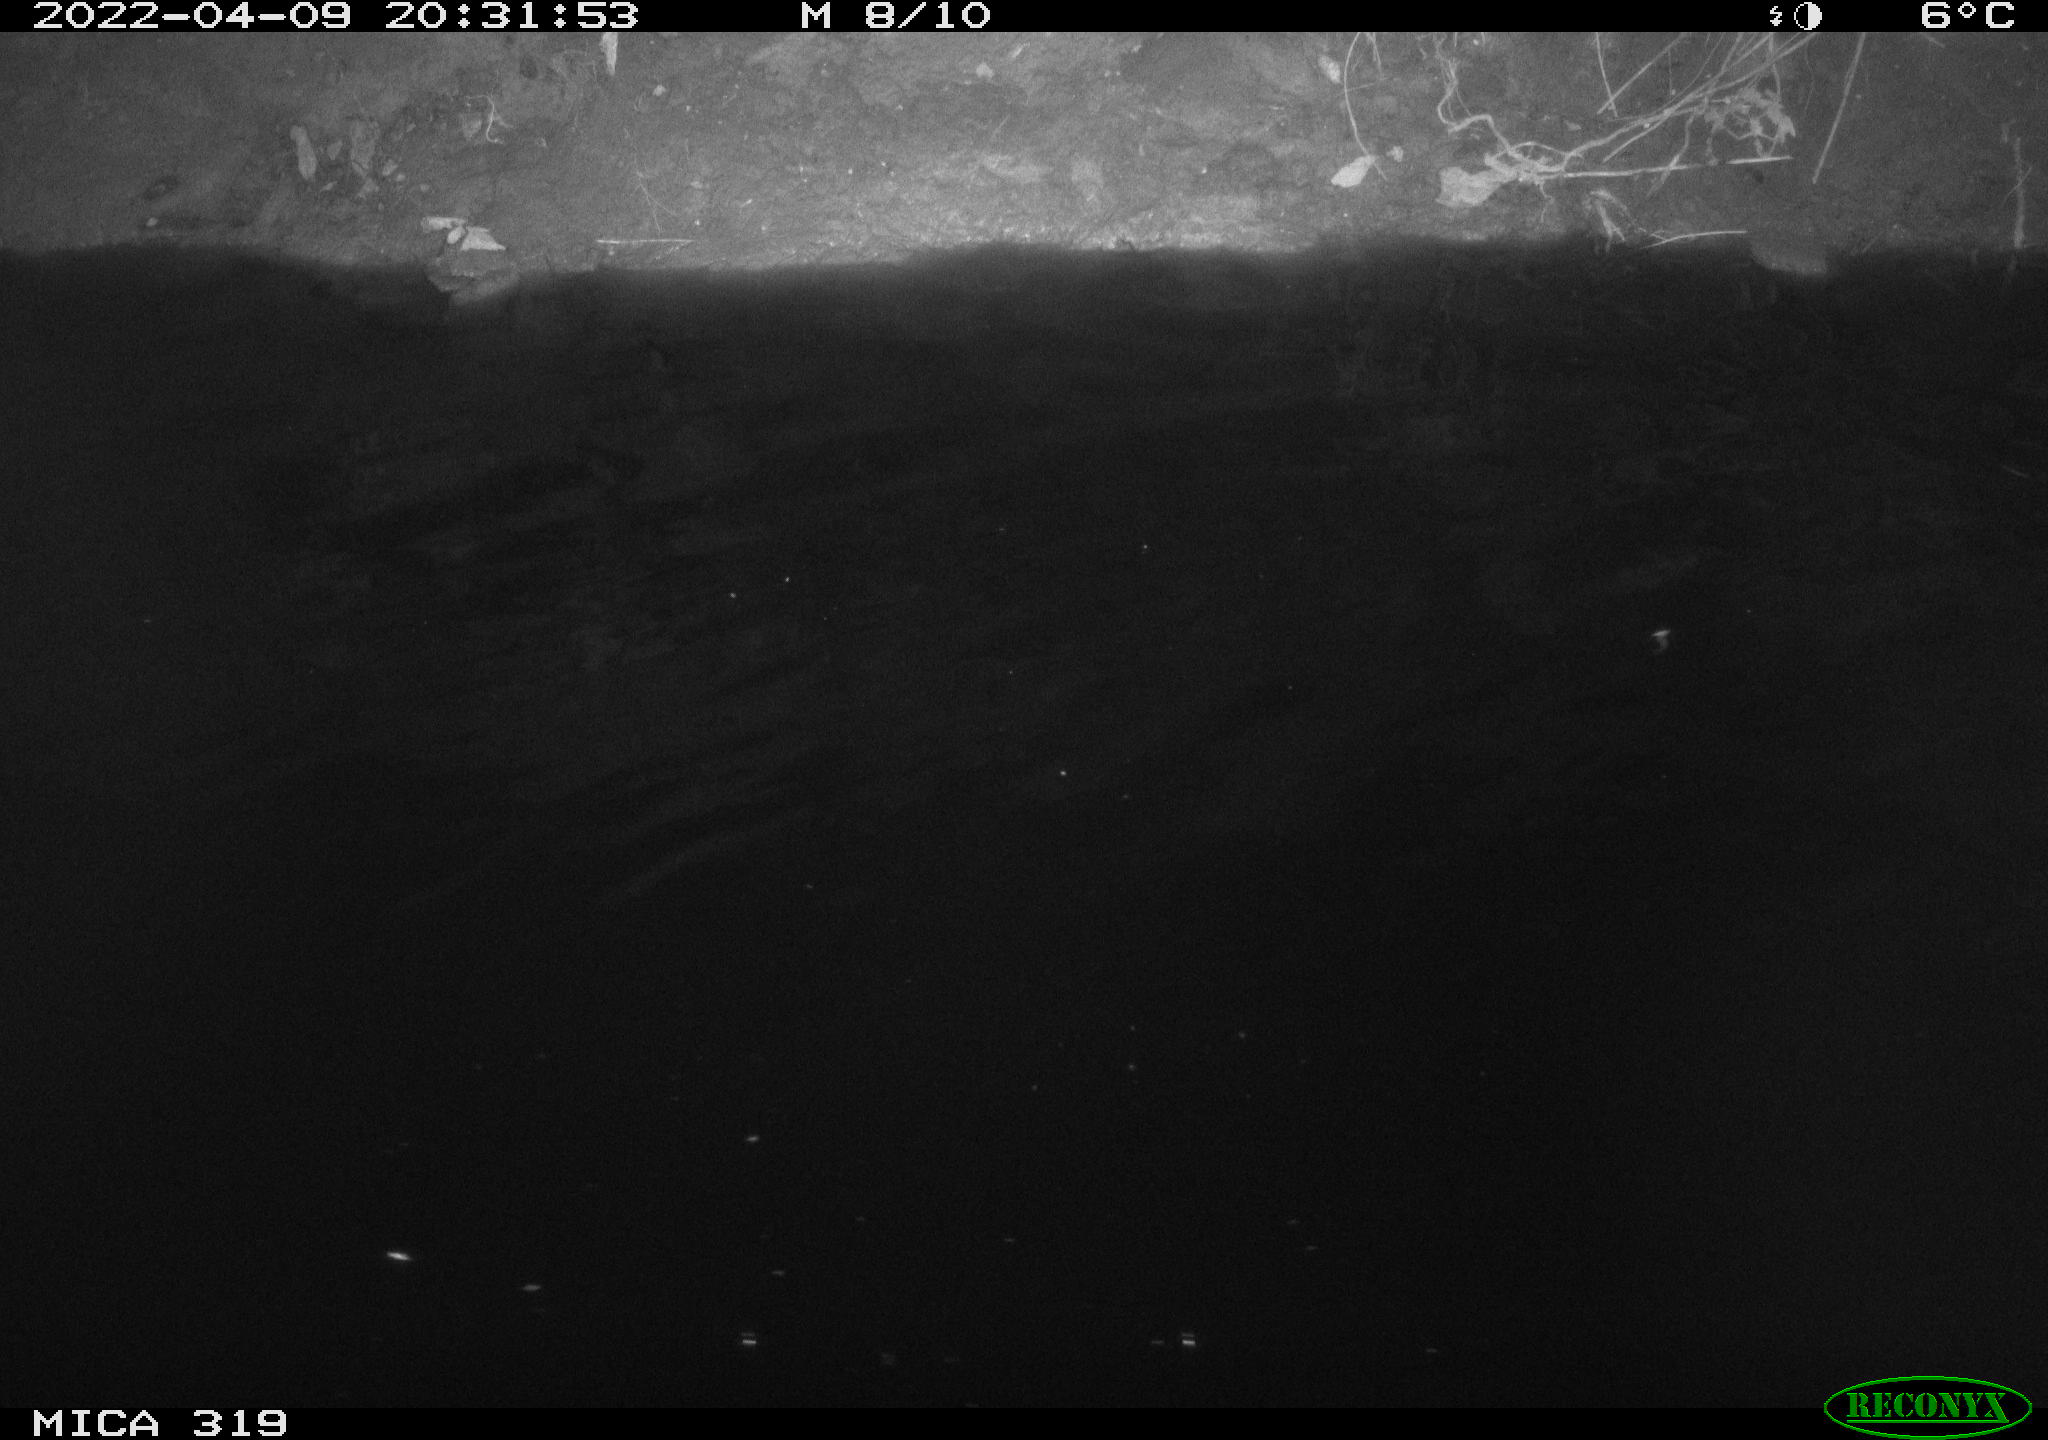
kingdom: Animalia
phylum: Chordata
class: Aves
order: Anseriformes
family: Anatidae
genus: Anas
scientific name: Anas platyrhynchos
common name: Mallard
